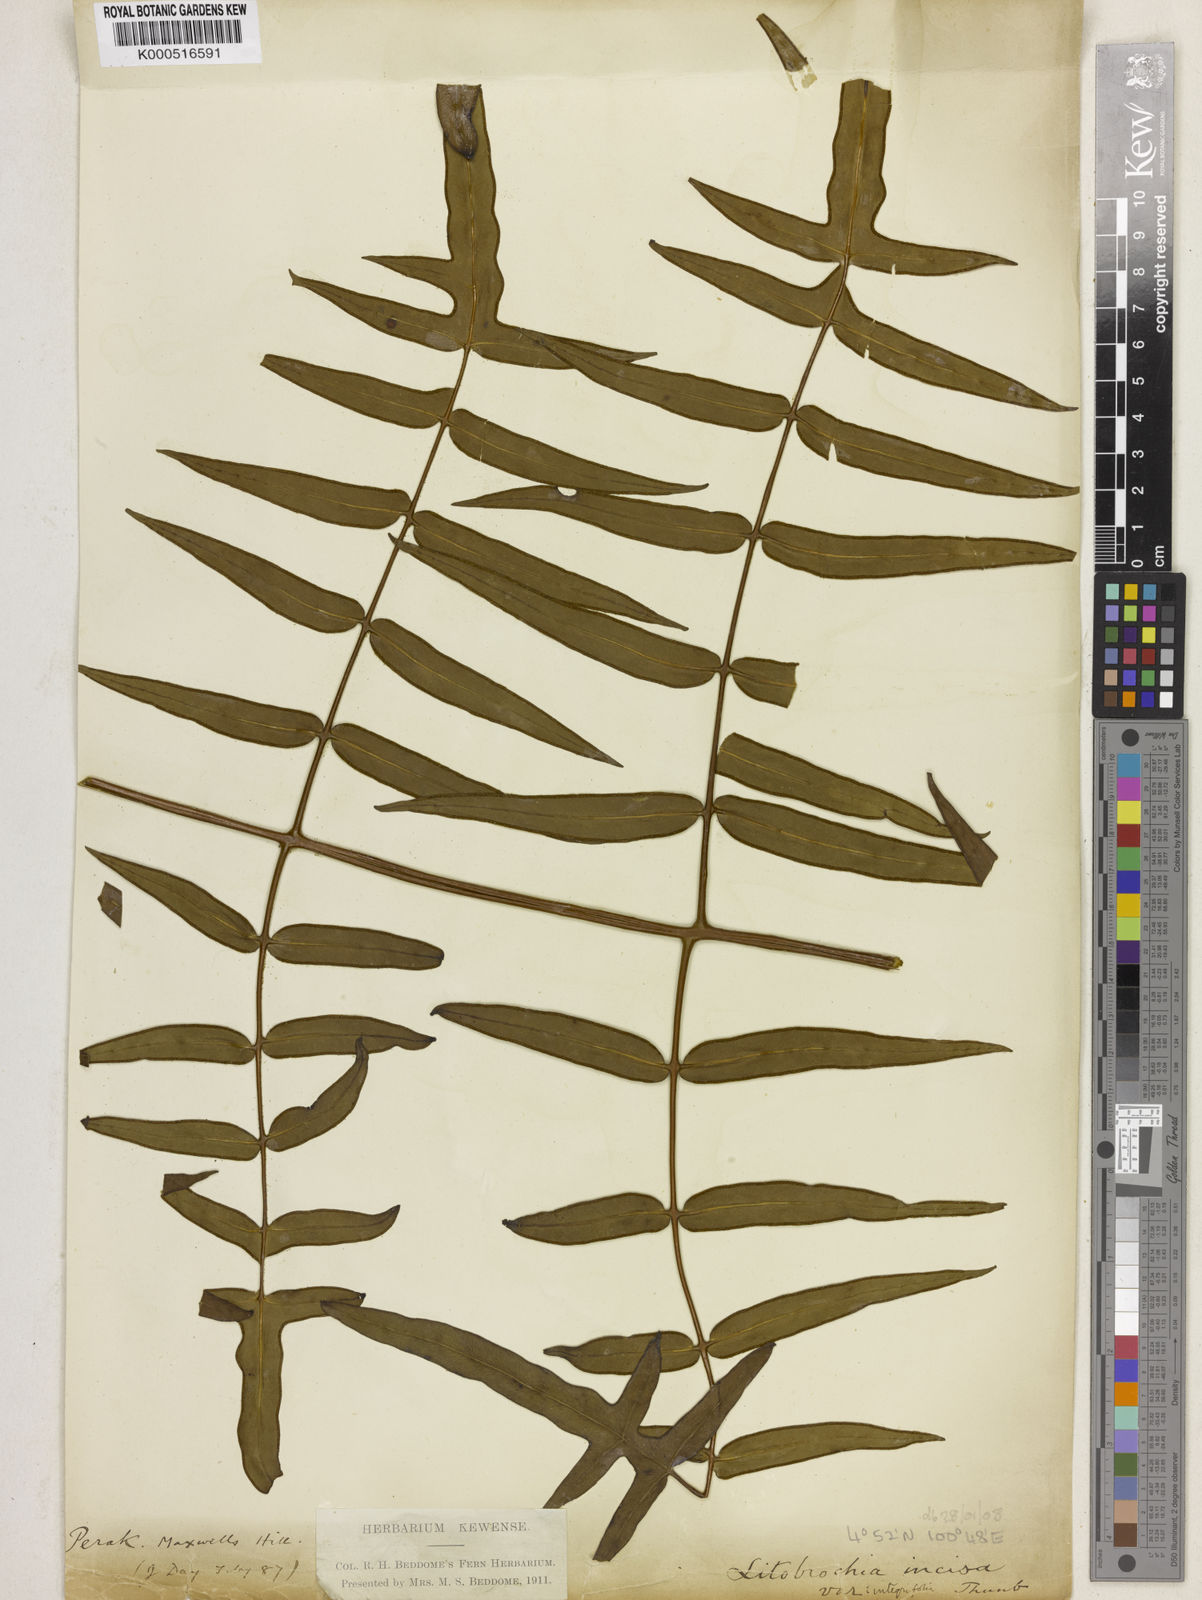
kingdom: Plantae
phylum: Tracheophyta
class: Polypodiopsida
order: Polypodiales
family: Dennstaedtiaceae
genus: Histiopteris
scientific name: Histiopteris stipulacea
